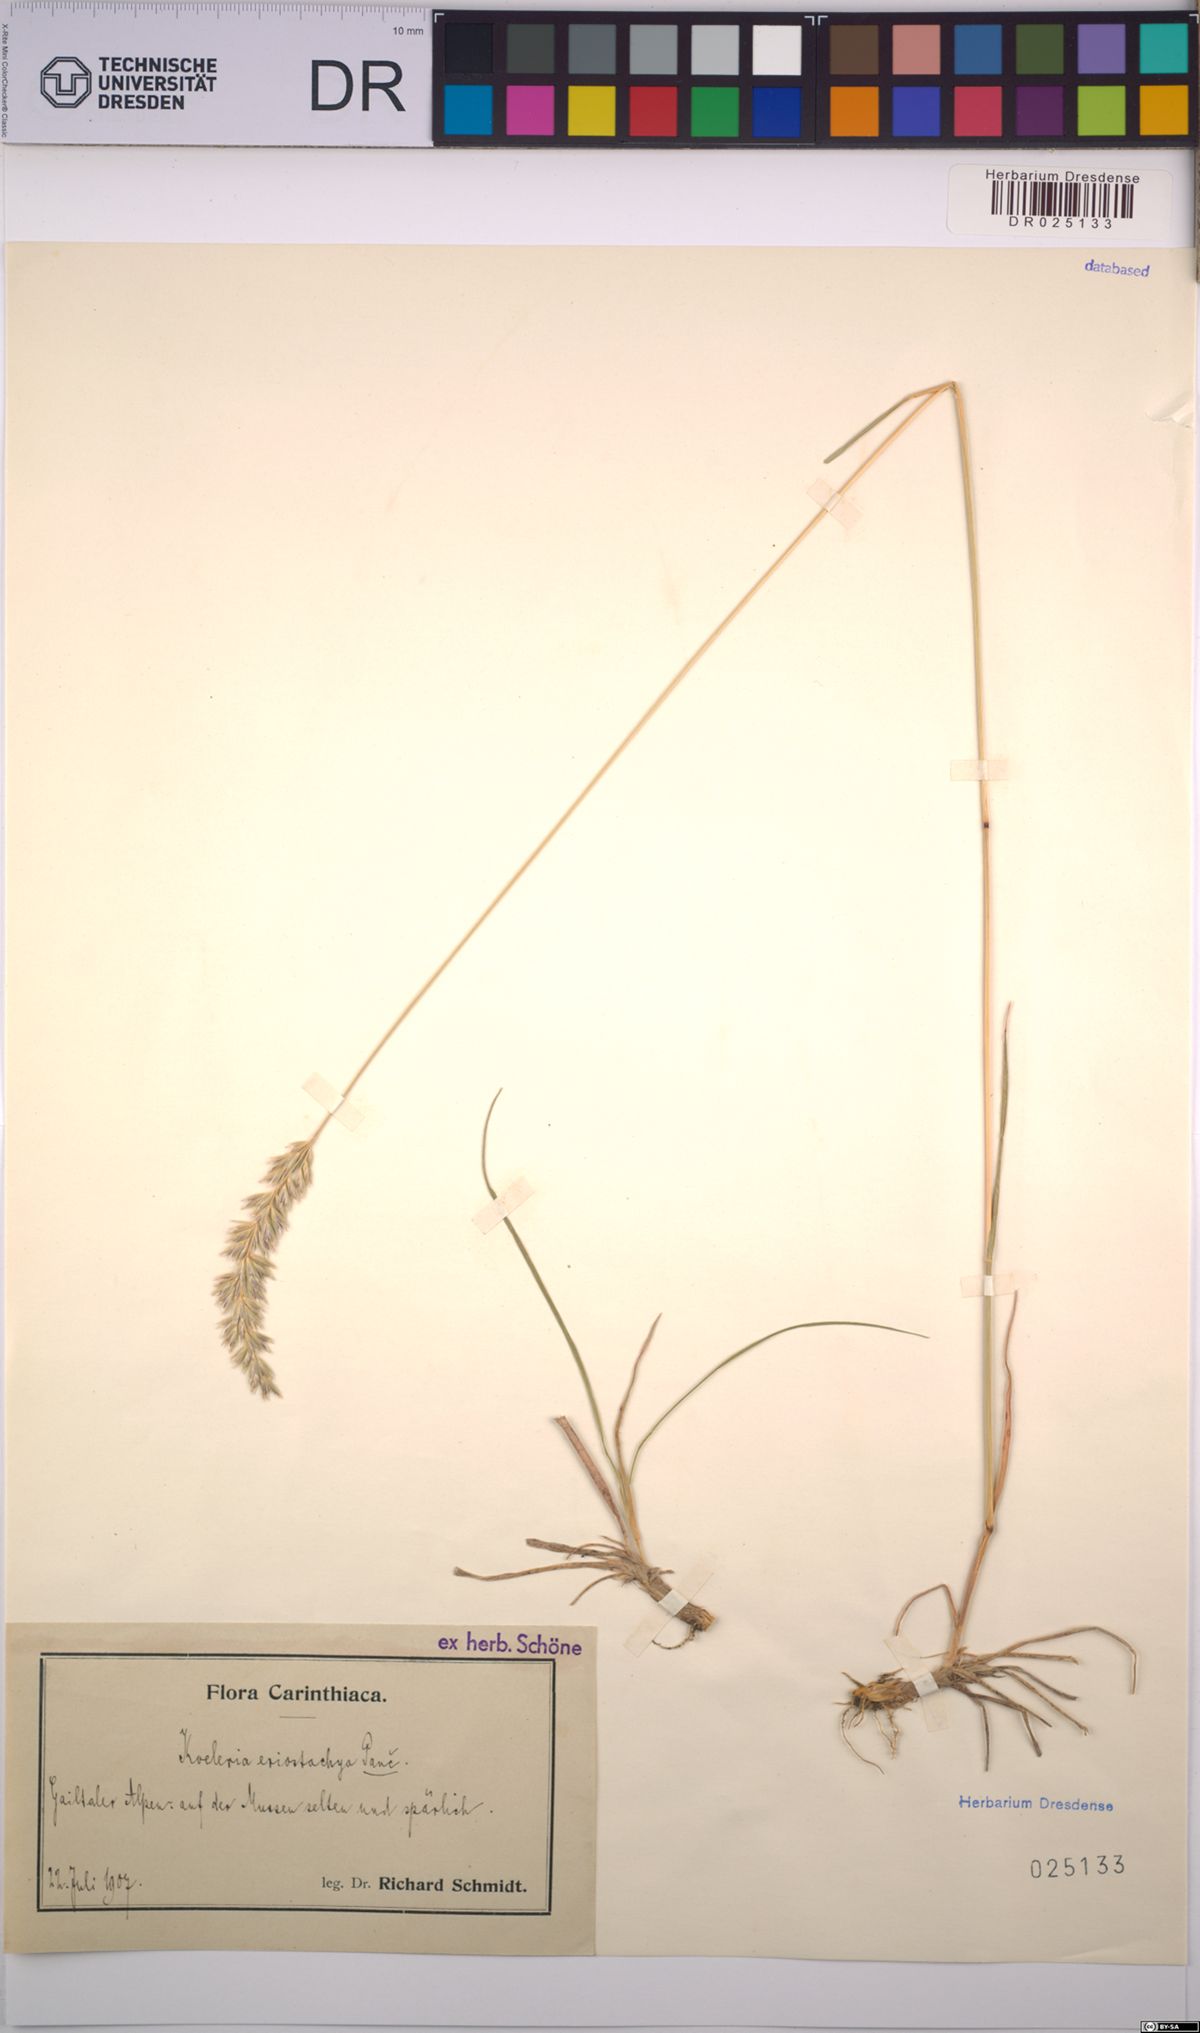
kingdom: Plantae
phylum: Tracheophyta
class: Liliopsida
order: Poales
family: Poaceae
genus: Koeleria
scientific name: Koeleria eriostachya
